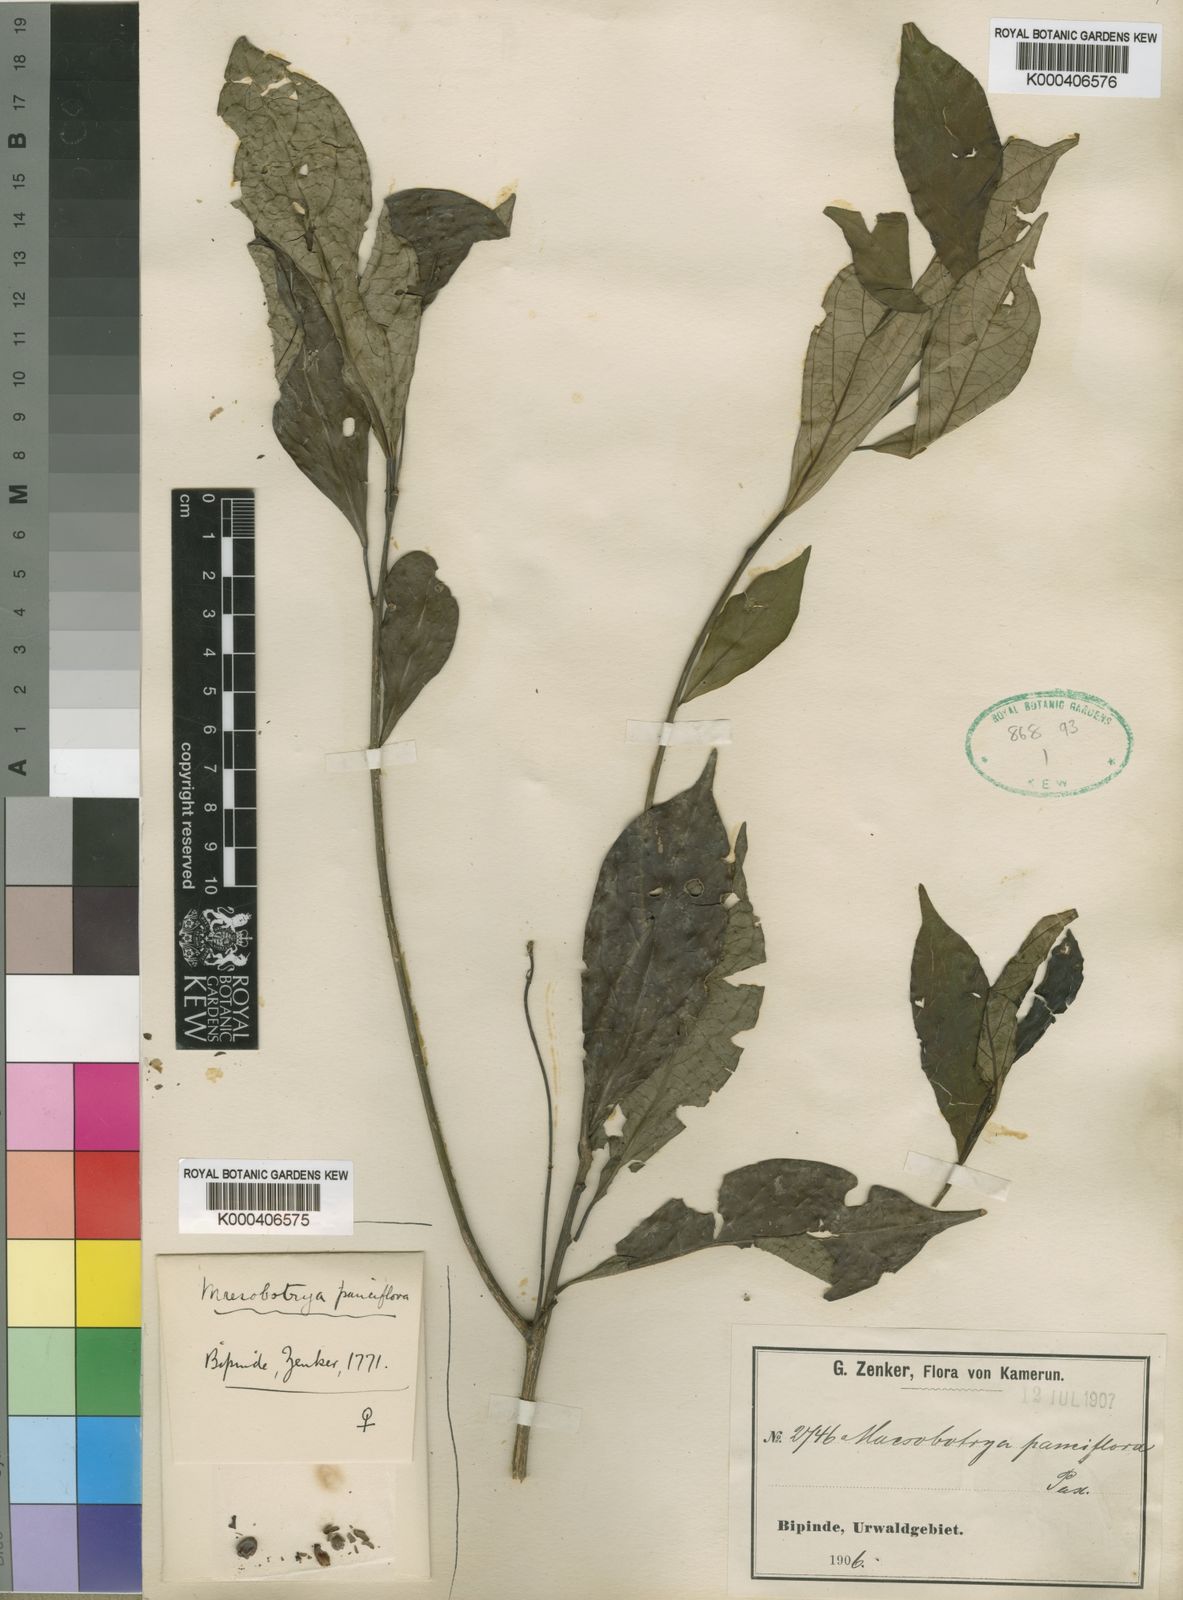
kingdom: Plantae
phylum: Tracheophyta
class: Magnoliopsida
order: Malpighiales
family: Phyllanthaceae
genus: Maesobotrya
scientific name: Maesobotrya pauciflora
